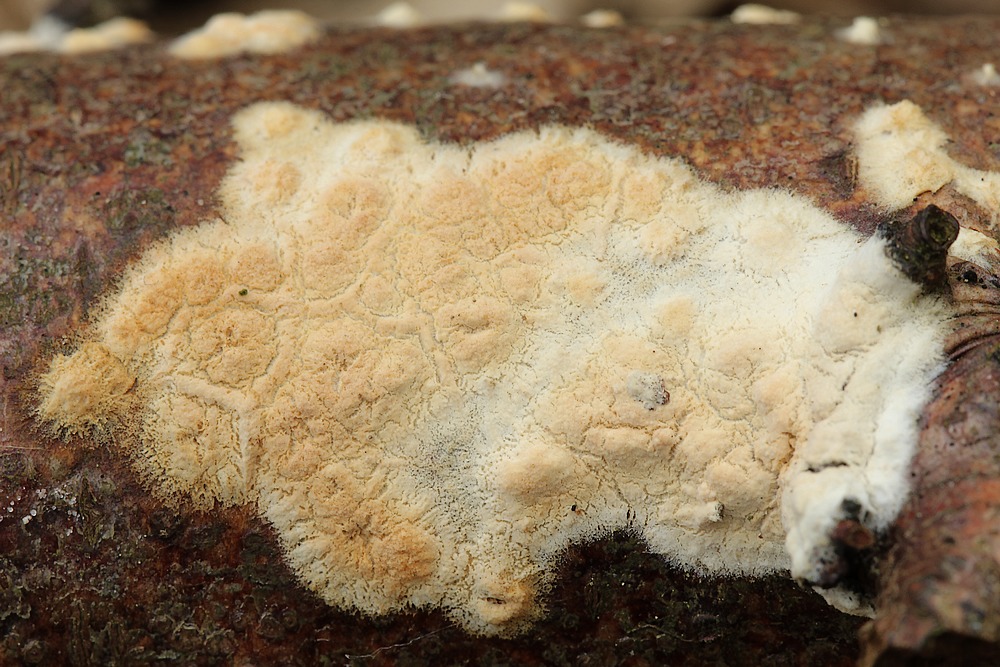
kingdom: Fungi
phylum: Basidiomycota
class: Agaricomycetes
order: Polyporales
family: Hyphodermataceae
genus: Hyphoderma
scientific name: Hyphoderma setigerum
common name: håret kalkskind
